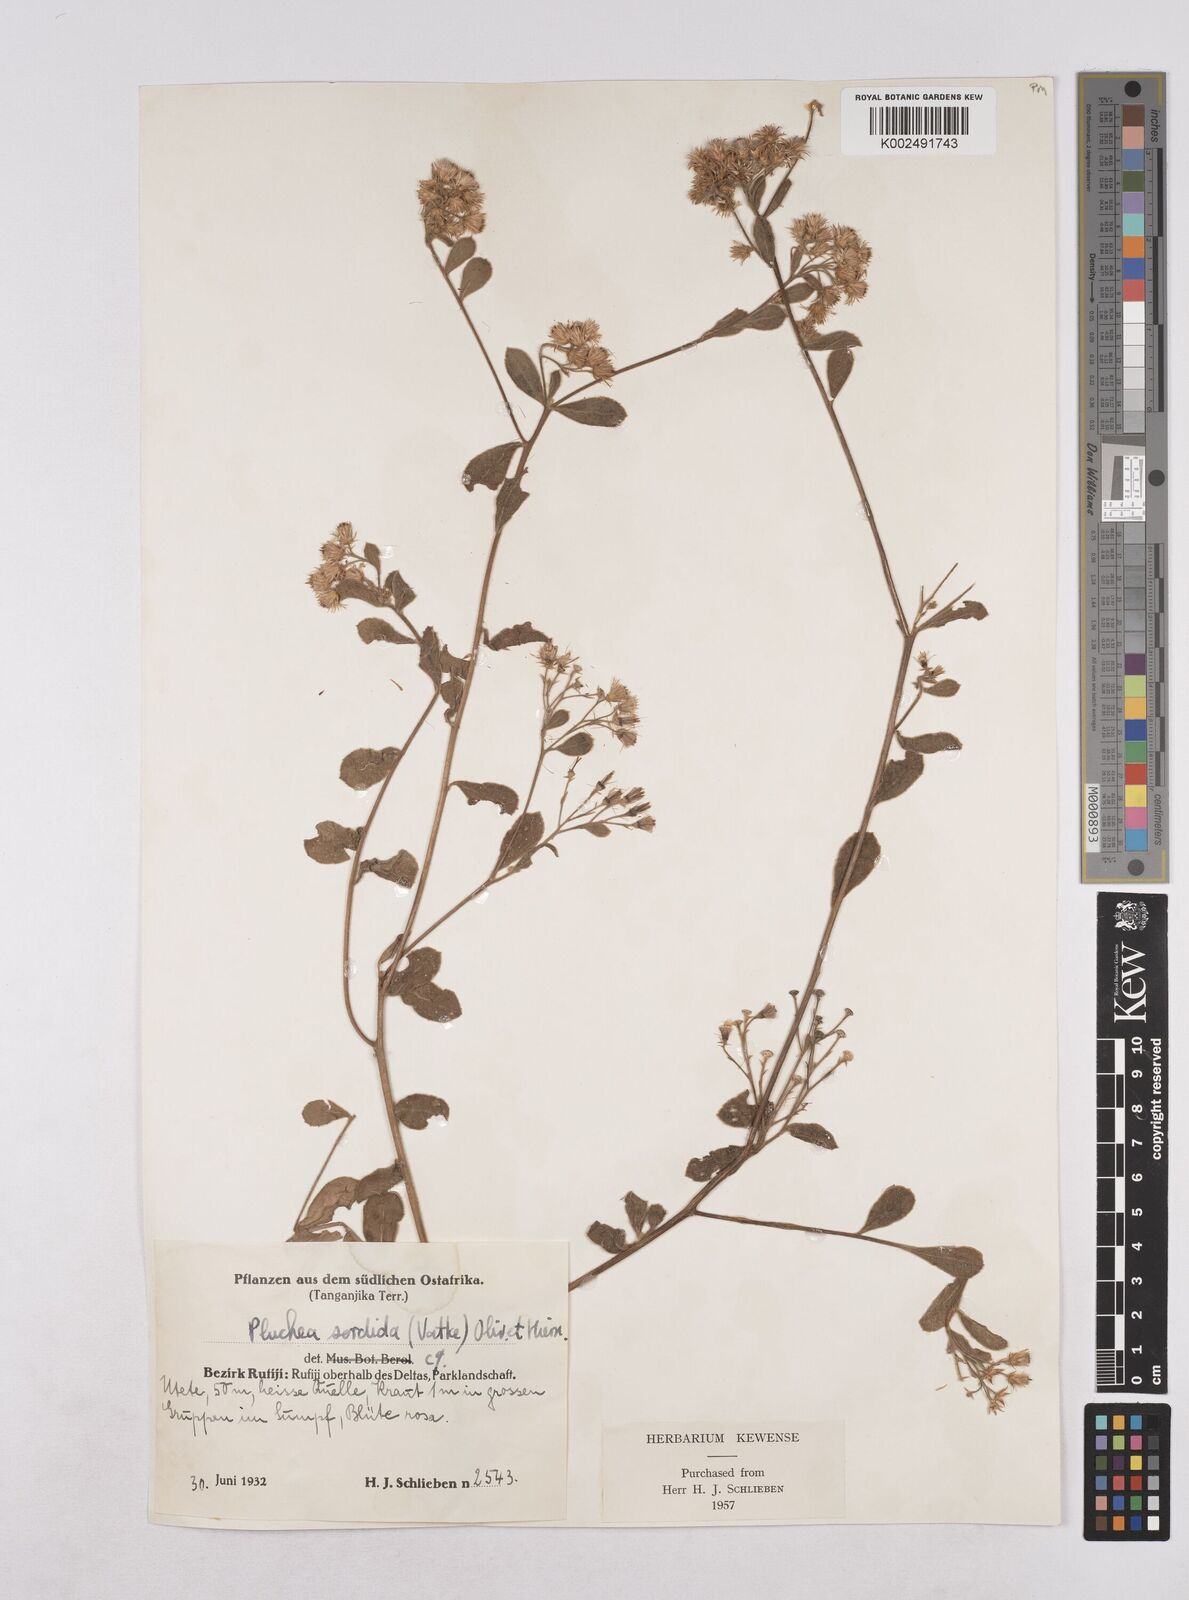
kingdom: Plantae
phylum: Tracheophyta
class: Magnoliopsida
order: Asterales
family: Asteraceae
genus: Pluchea
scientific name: Pluchea sordida
